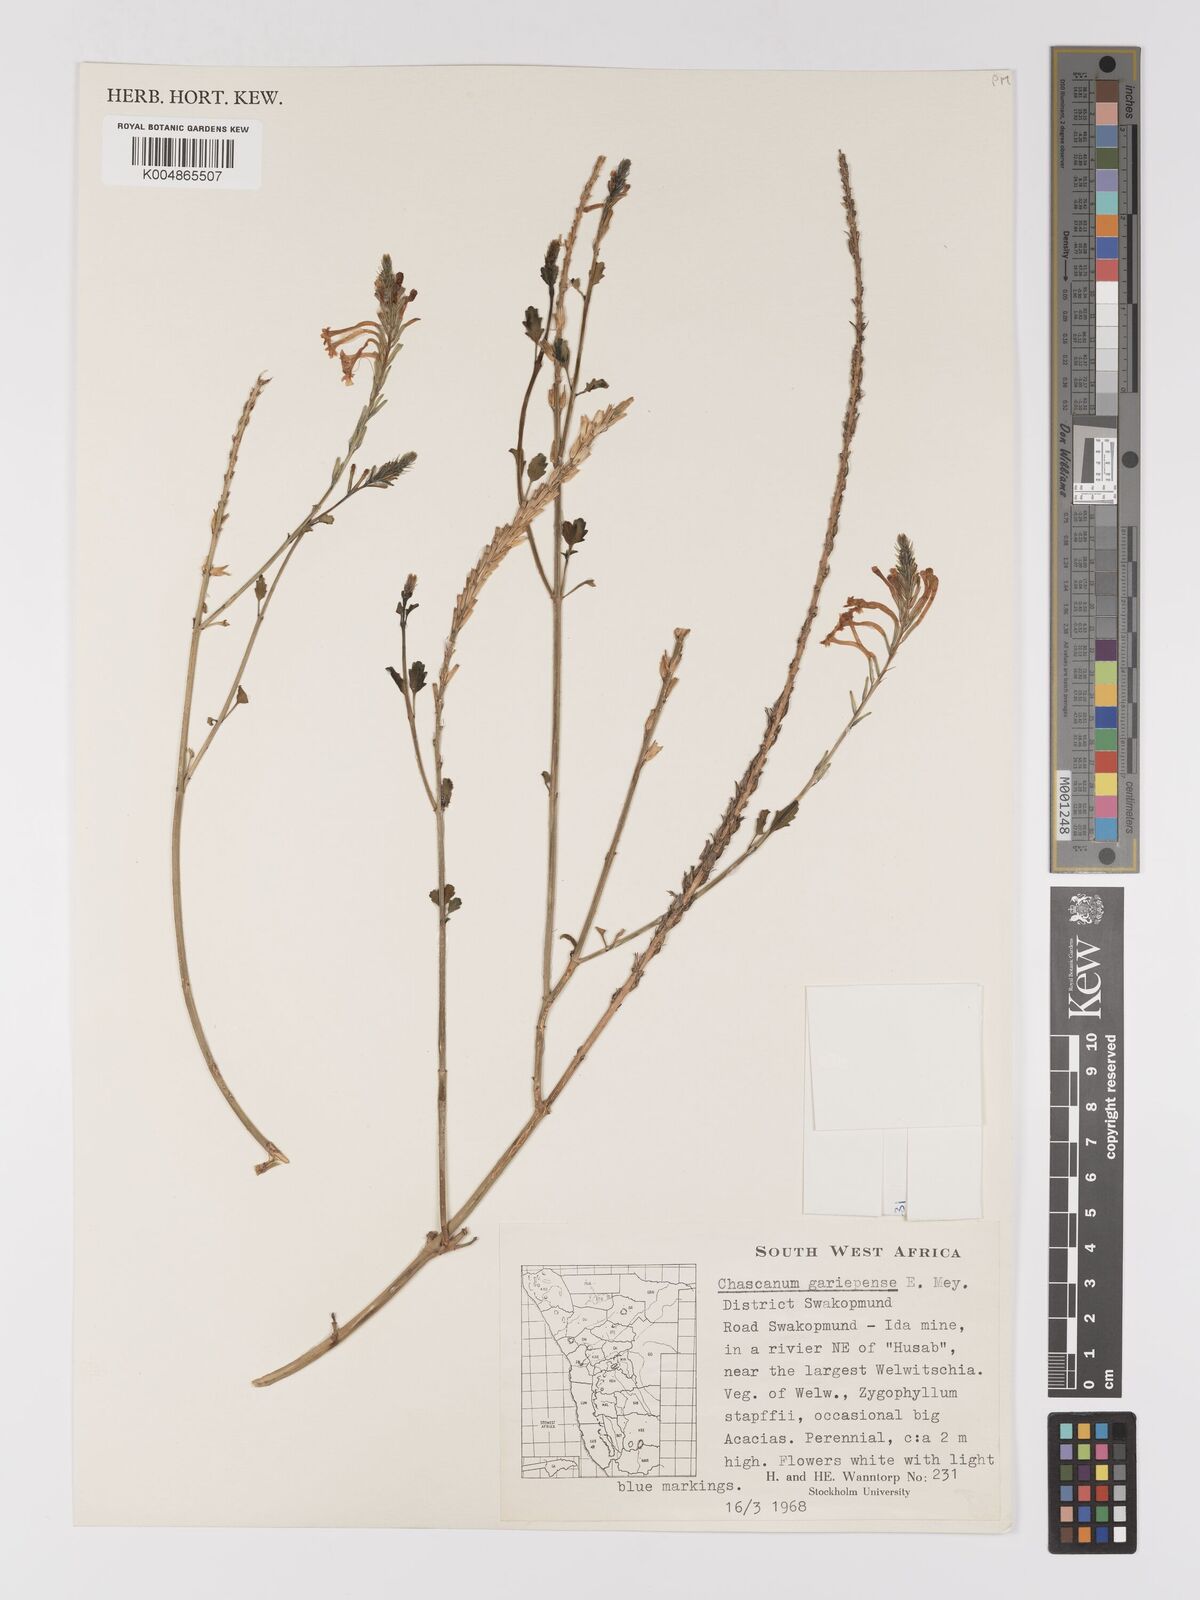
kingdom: Plantae
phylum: Tracheophyta
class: Magnoliopsida
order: Lamiales
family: Verbenaceae
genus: Chascanum
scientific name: Chascanum garipense
